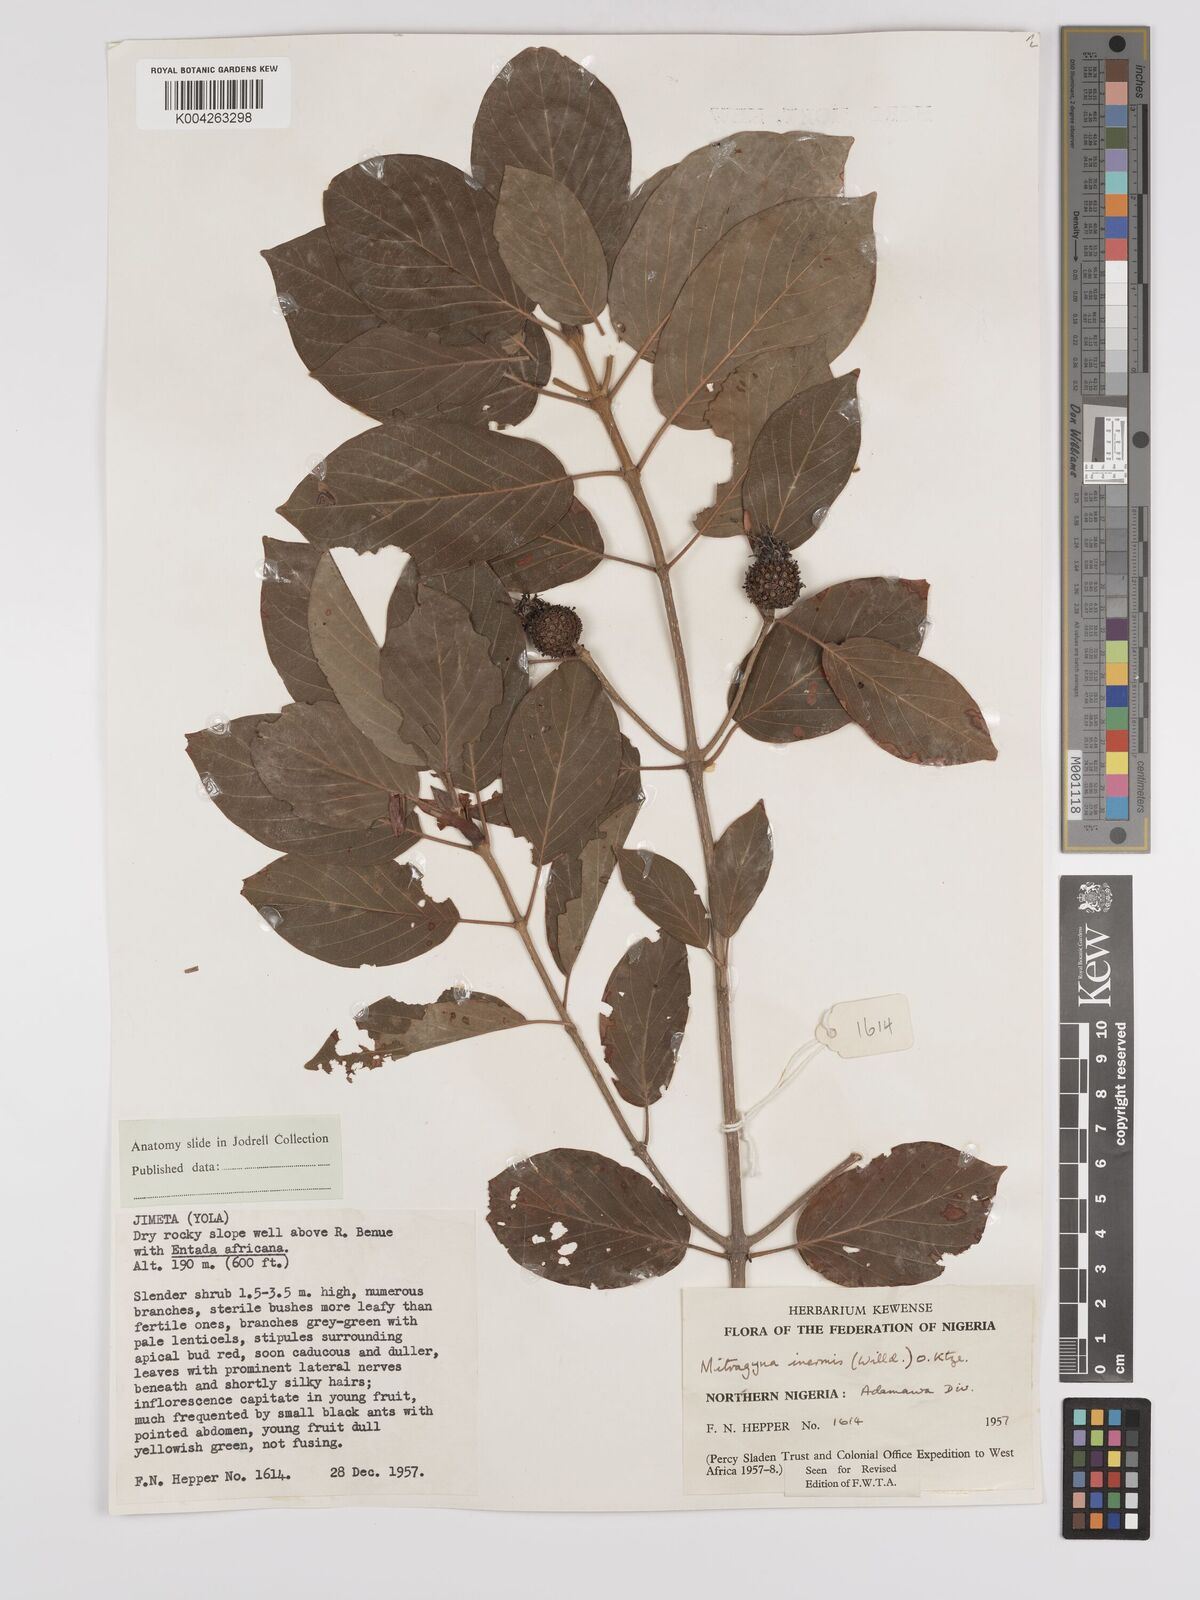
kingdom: Plantae
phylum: Tracheophyta
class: Magnoliopsida
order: Gentianales
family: Rubiaceae
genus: Mitragyna
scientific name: Mitragyna inermis
